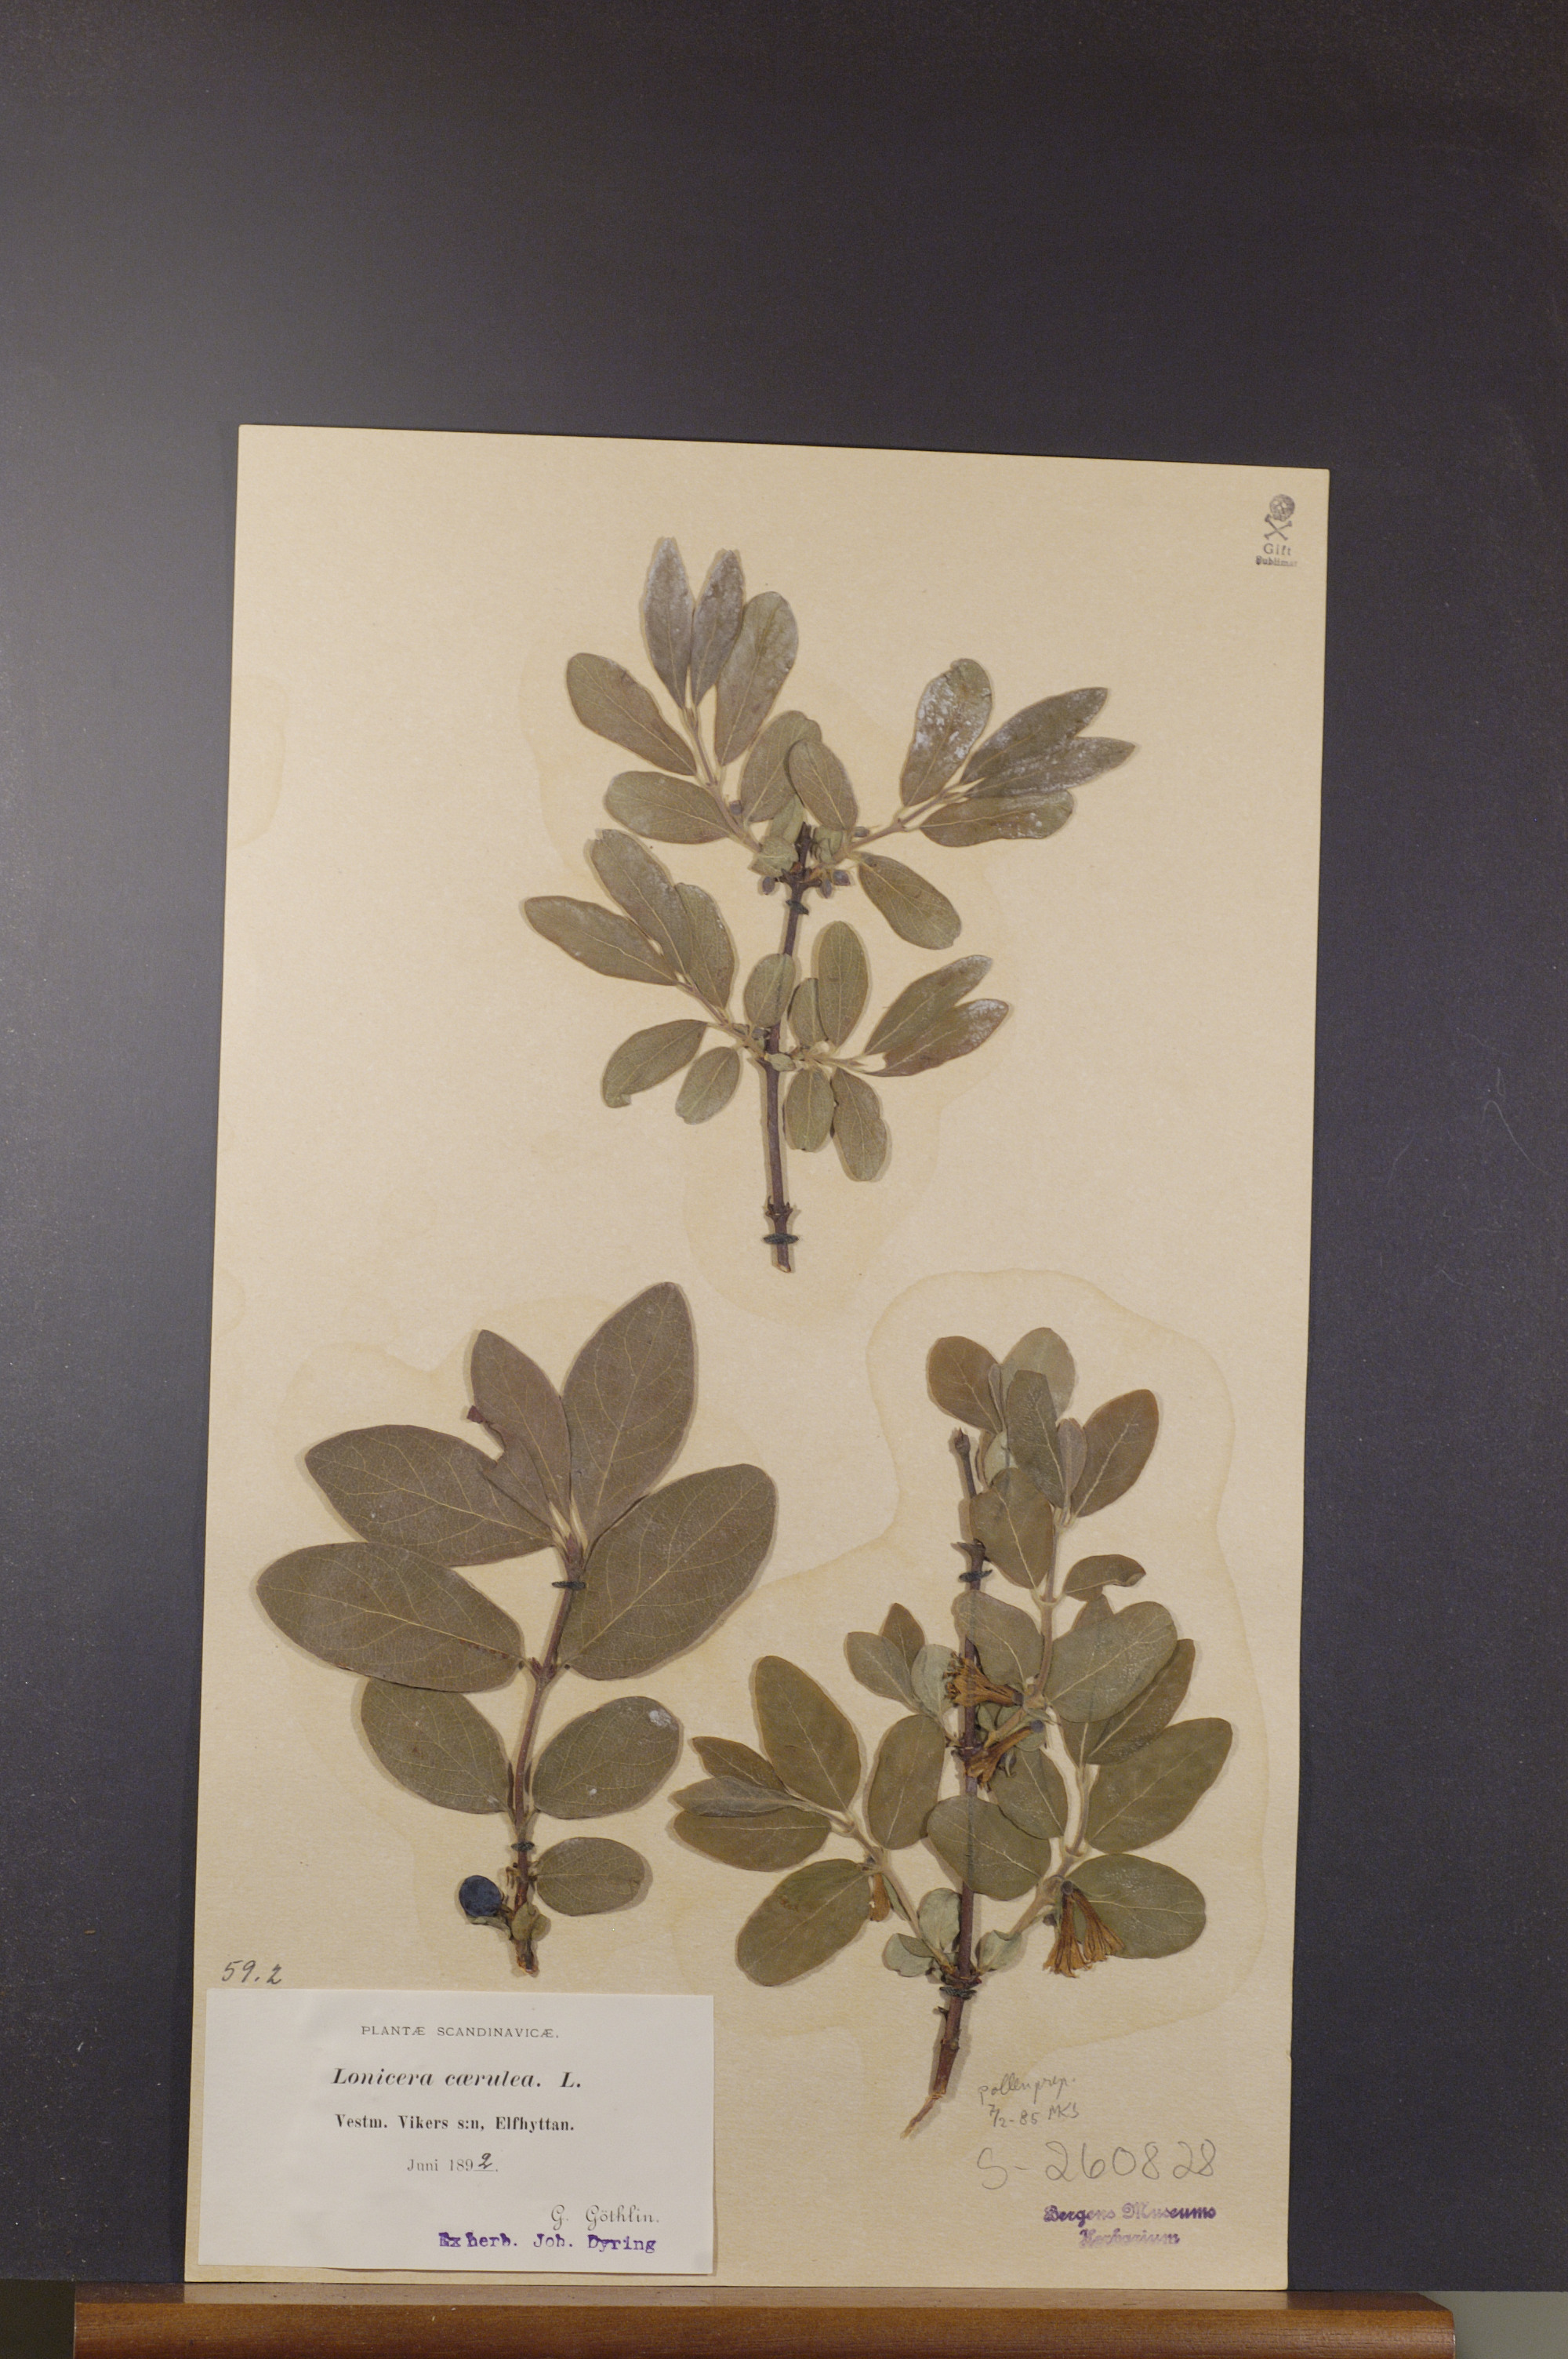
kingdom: Plantae
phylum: Tracheophyta
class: Magnoliopsida
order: Dipsacales
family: Caprifoliaceae
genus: Lonicera
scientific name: Lonicera caerulea
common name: Blue honeysuckle
